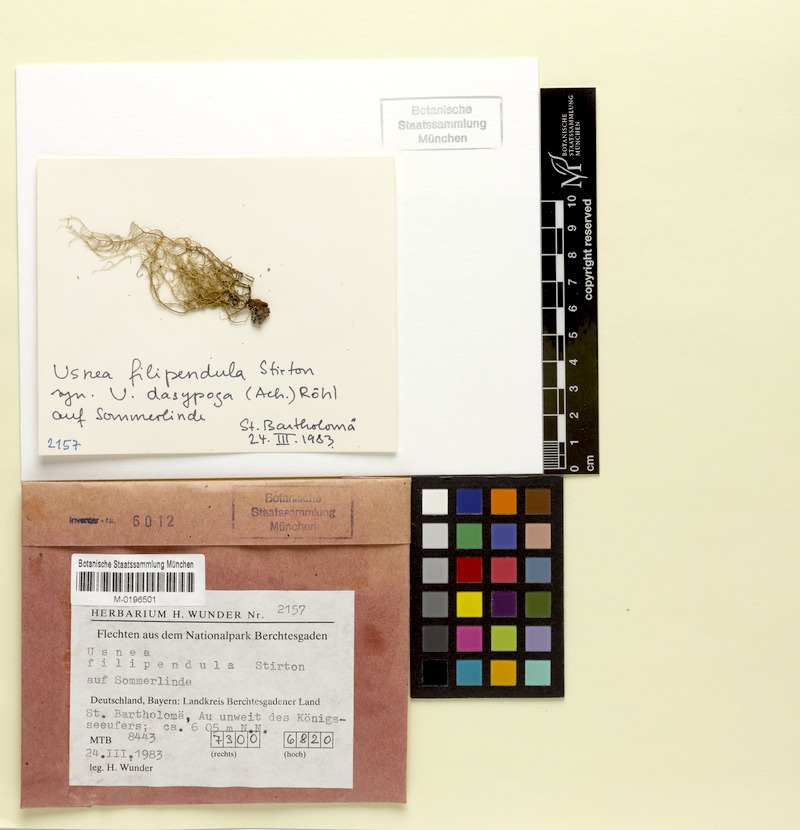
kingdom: Fungi
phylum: Ascomycota
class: Lecanoromycetes
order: Lecanorales
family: Parmeliaceae
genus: Usnea
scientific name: Usnea filipendula
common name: Fishbone beard lichen
